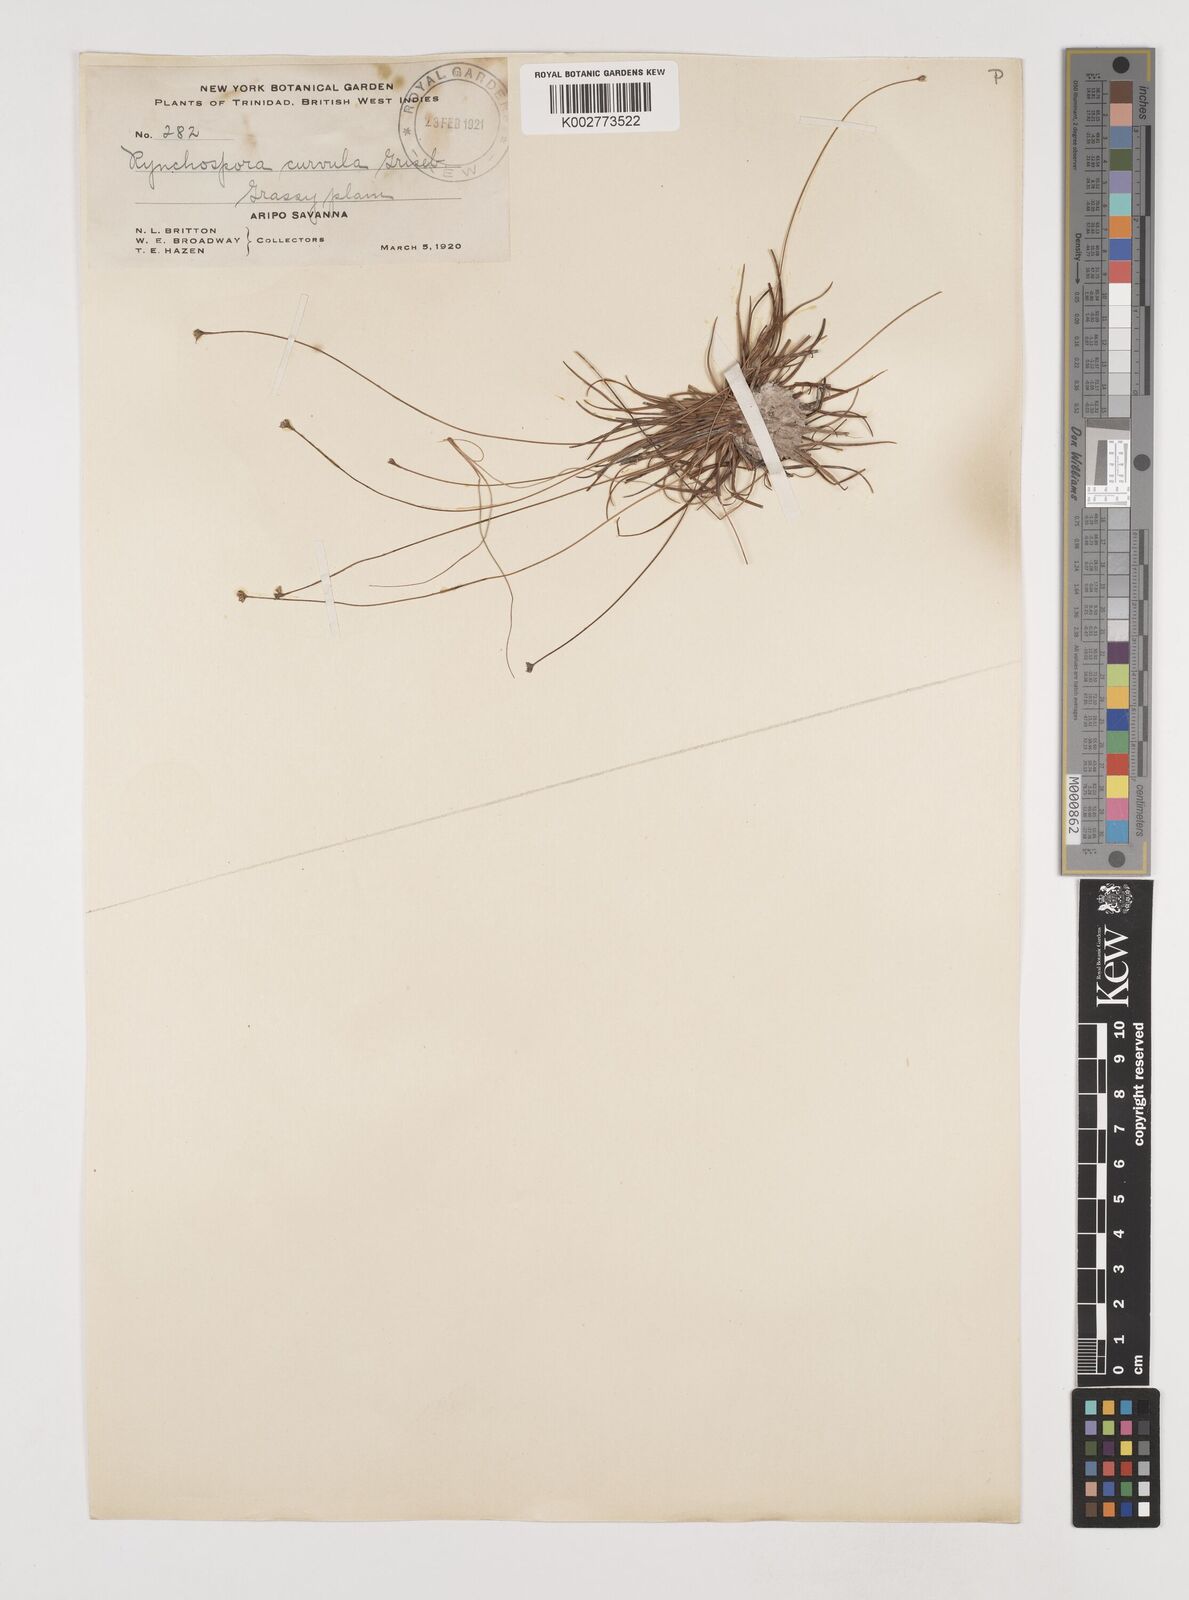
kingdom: Plantae
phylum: Tracheophyta
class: Liliopsida
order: Poales
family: Cyperaceae
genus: Rhynchospora
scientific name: Rhynchospora tenuis
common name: Quill beaksedge
